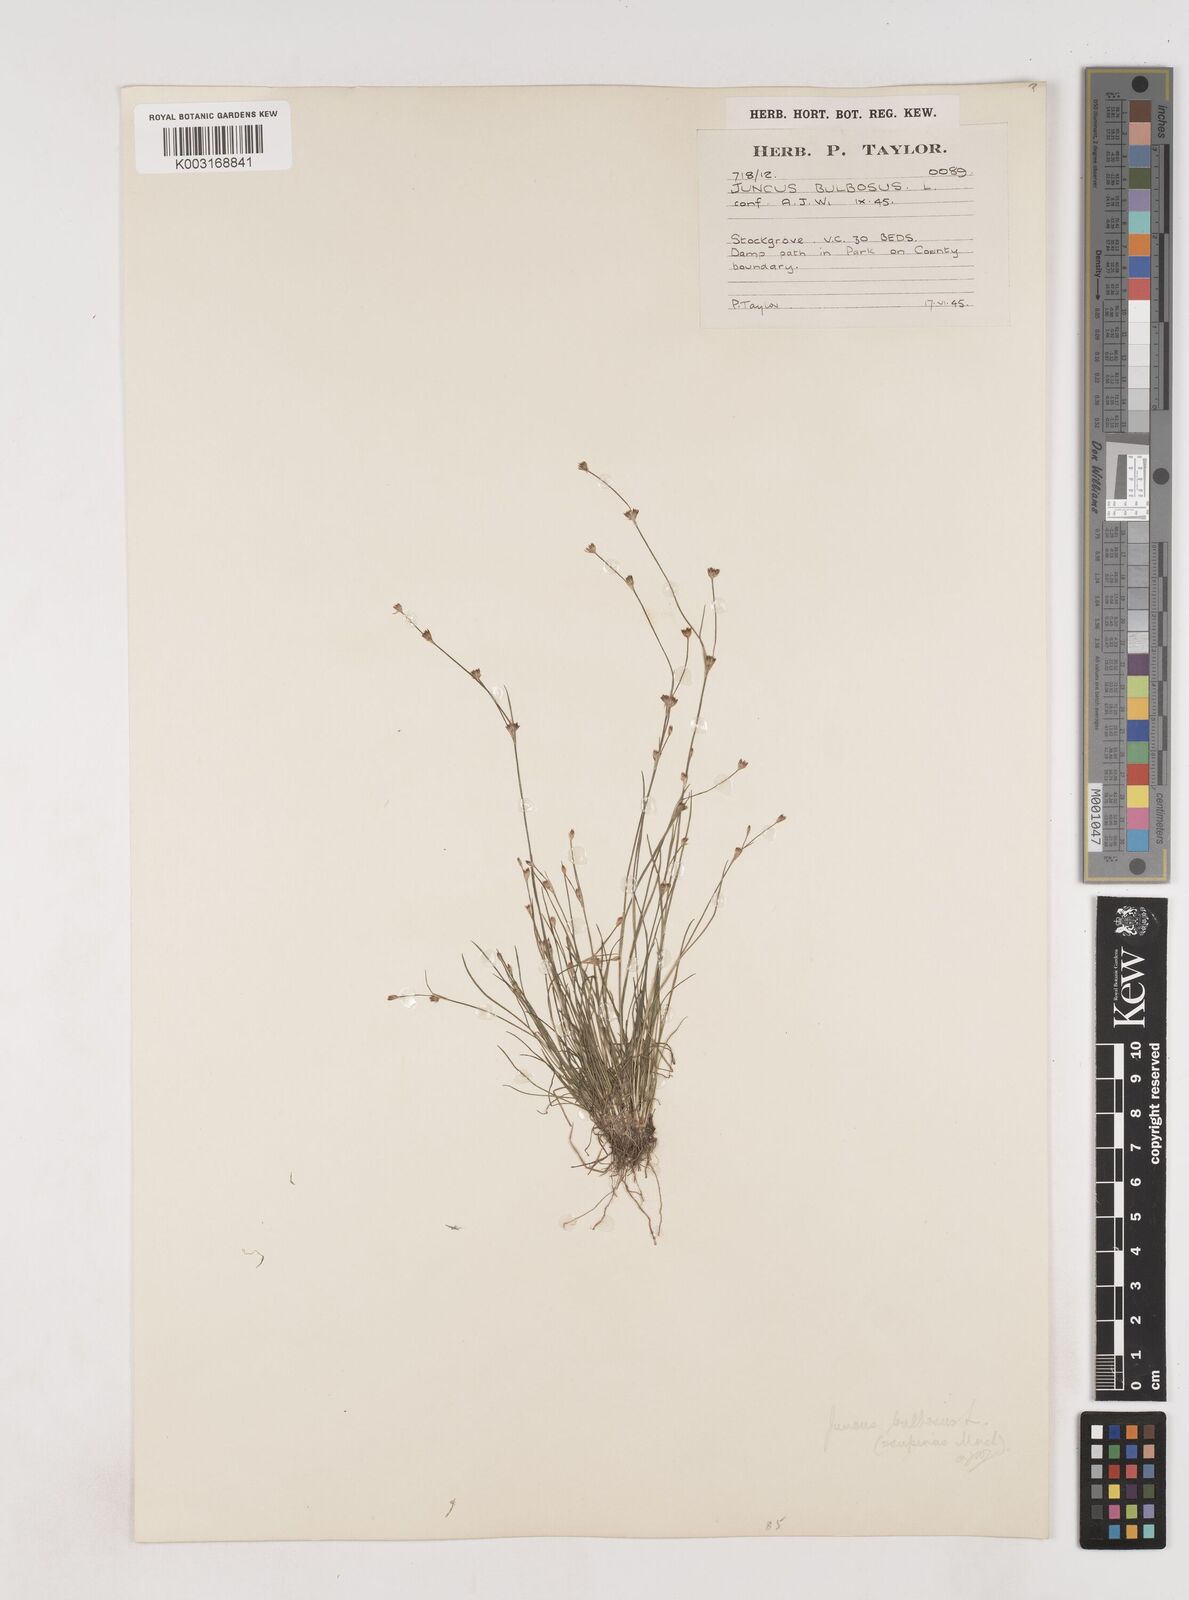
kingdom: Plantae
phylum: Tracheophyta
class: Liliopsida
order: Poales
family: Juncaceae
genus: Juncus
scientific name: Juncus bulbosus
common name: Bulbous rush
